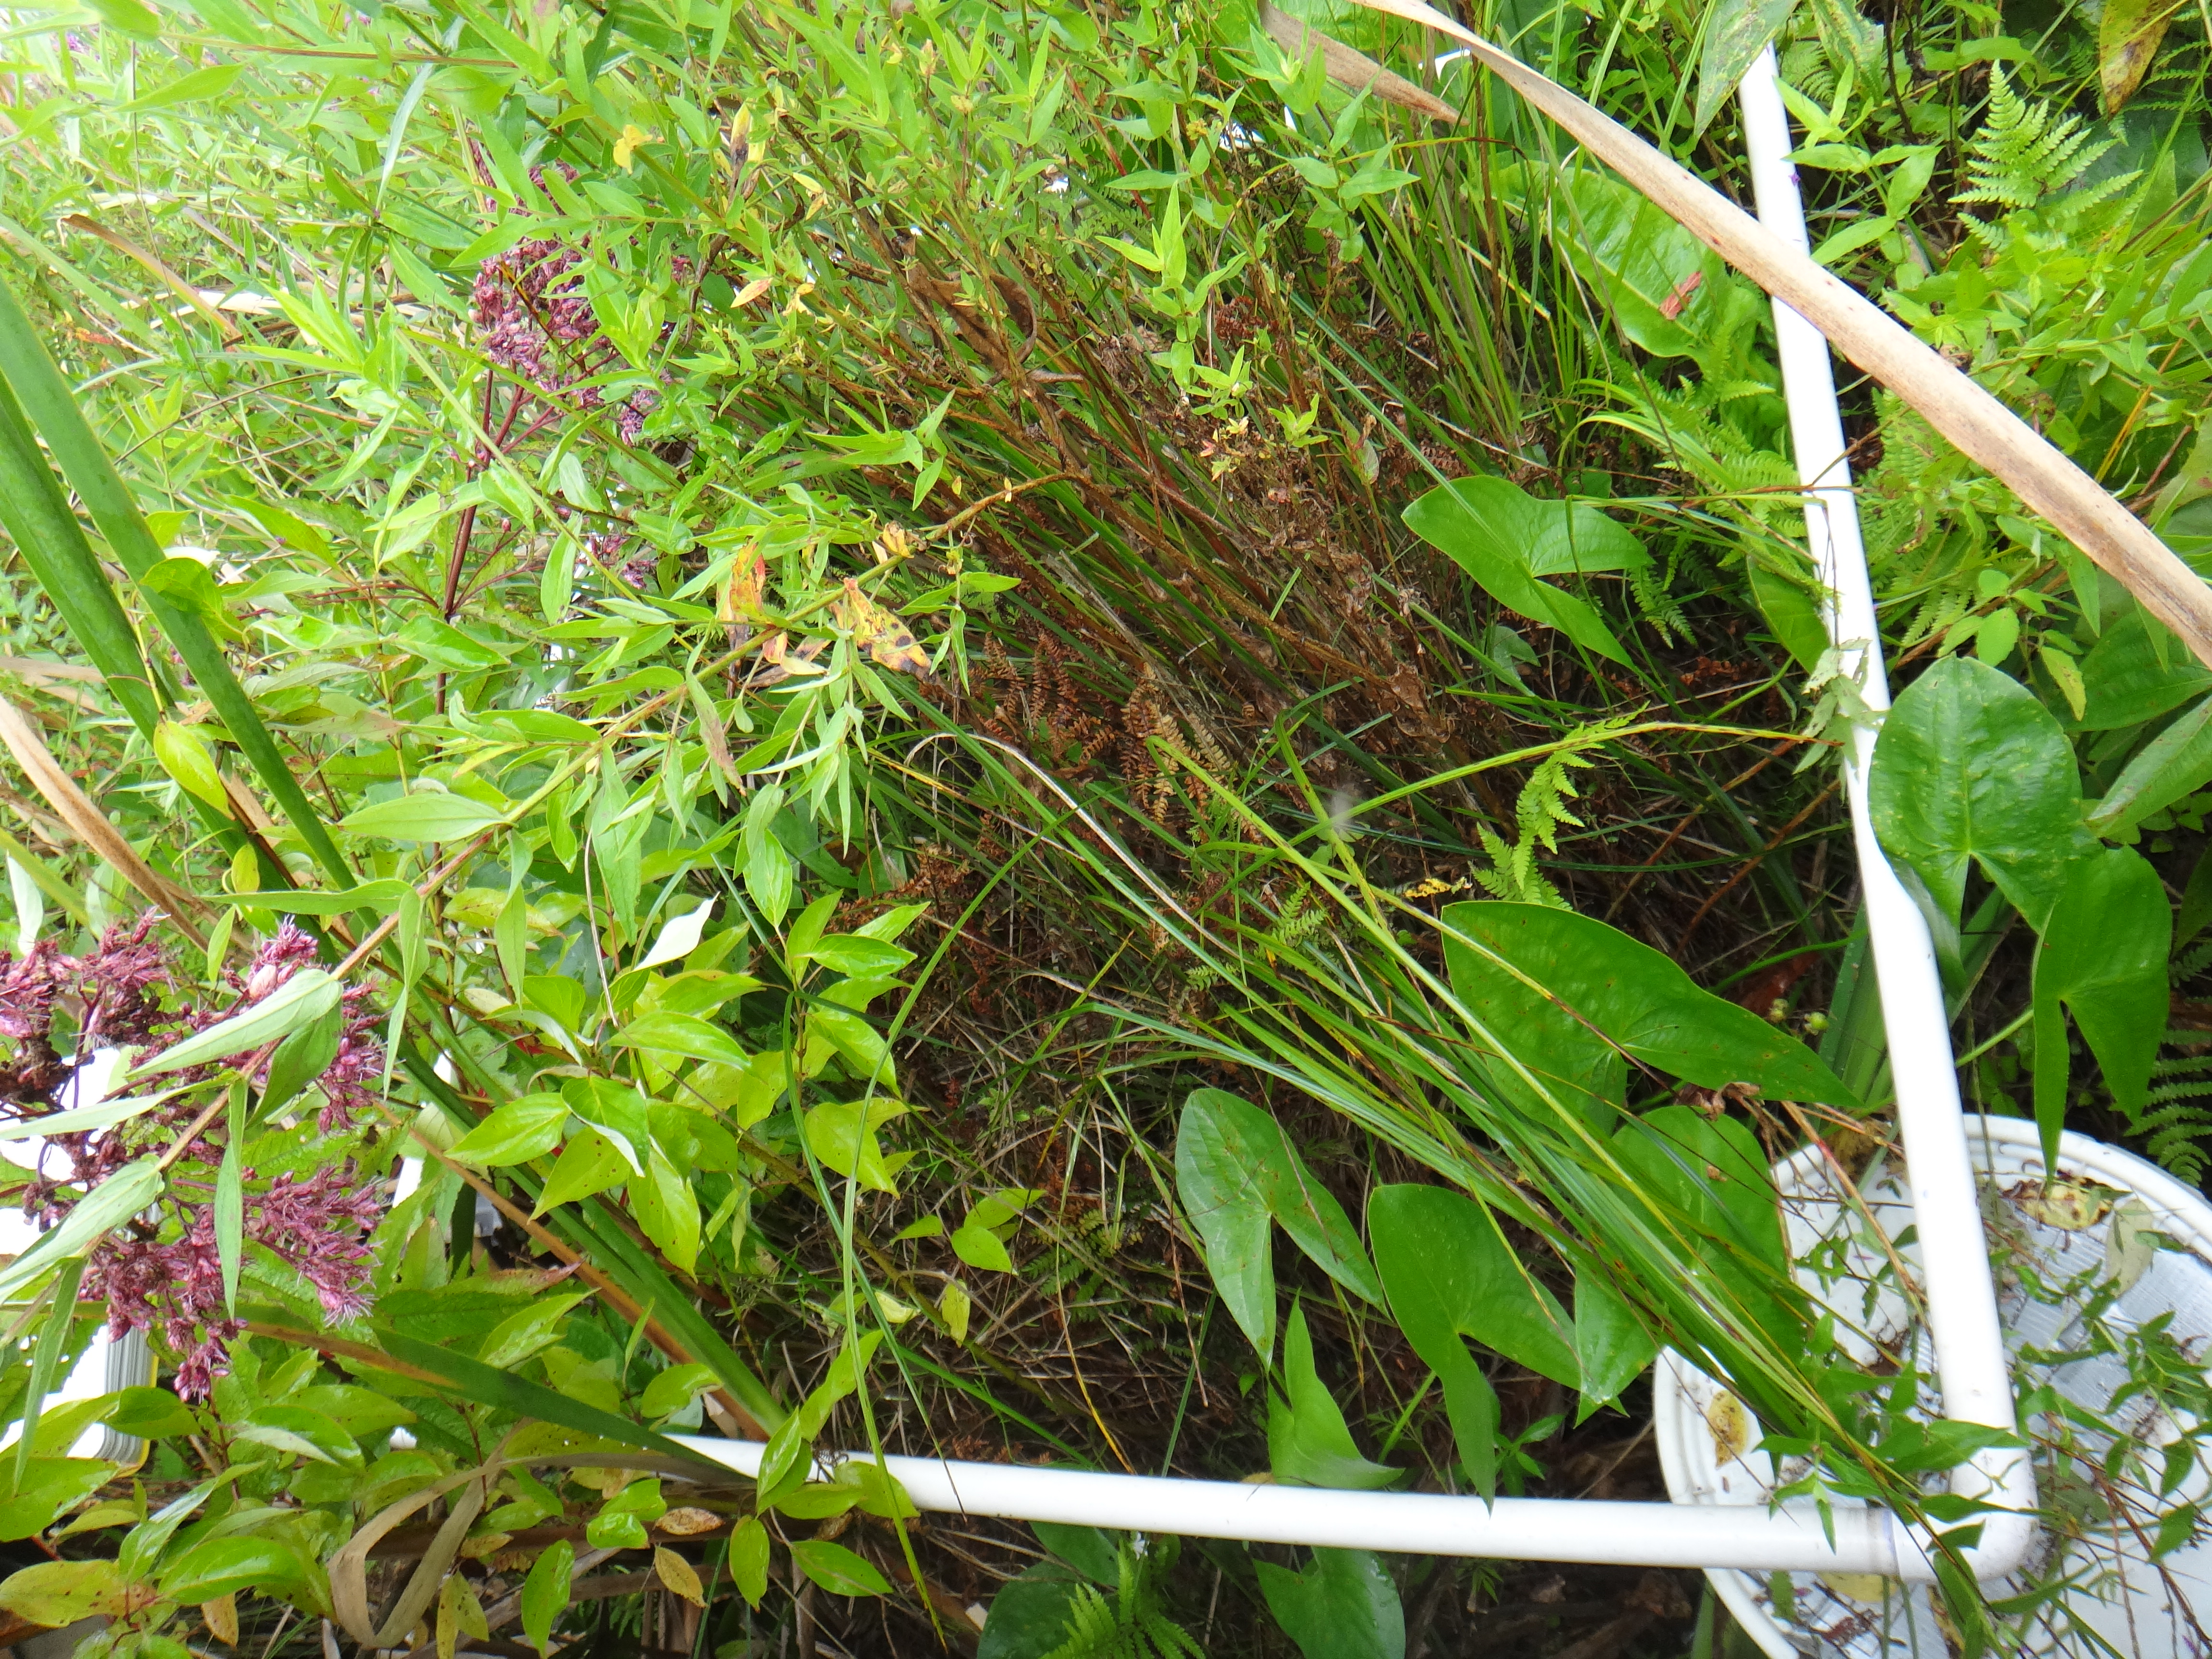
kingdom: Plantae
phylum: Tracheophyta
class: Liliopsida
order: Poales
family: Cyperaceae
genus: Carex
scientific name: Carex stricta
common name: Hummock sedge
